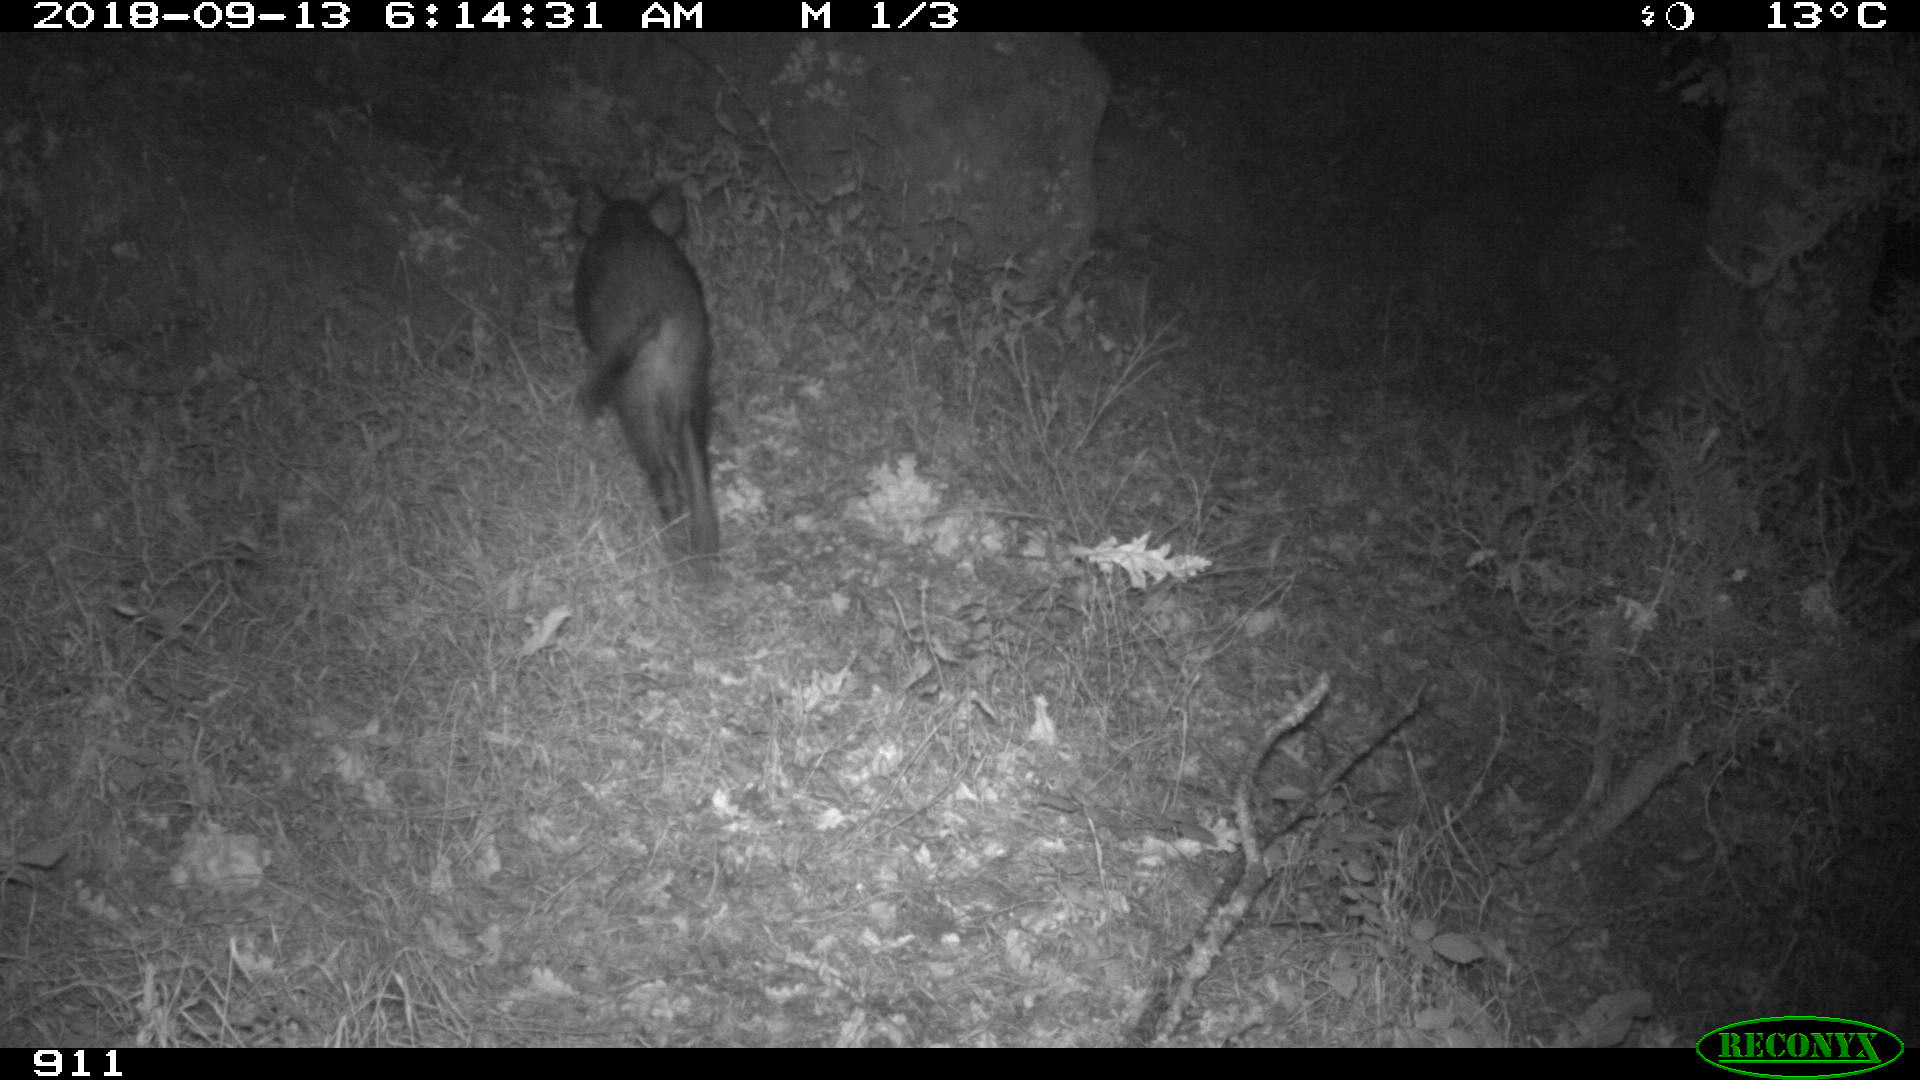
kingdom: Animalia
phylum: Chordata
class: Mammalia
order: Artiodactyla
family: Suidae
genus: Sus
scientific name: Sus scrofa
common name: Wild boar
